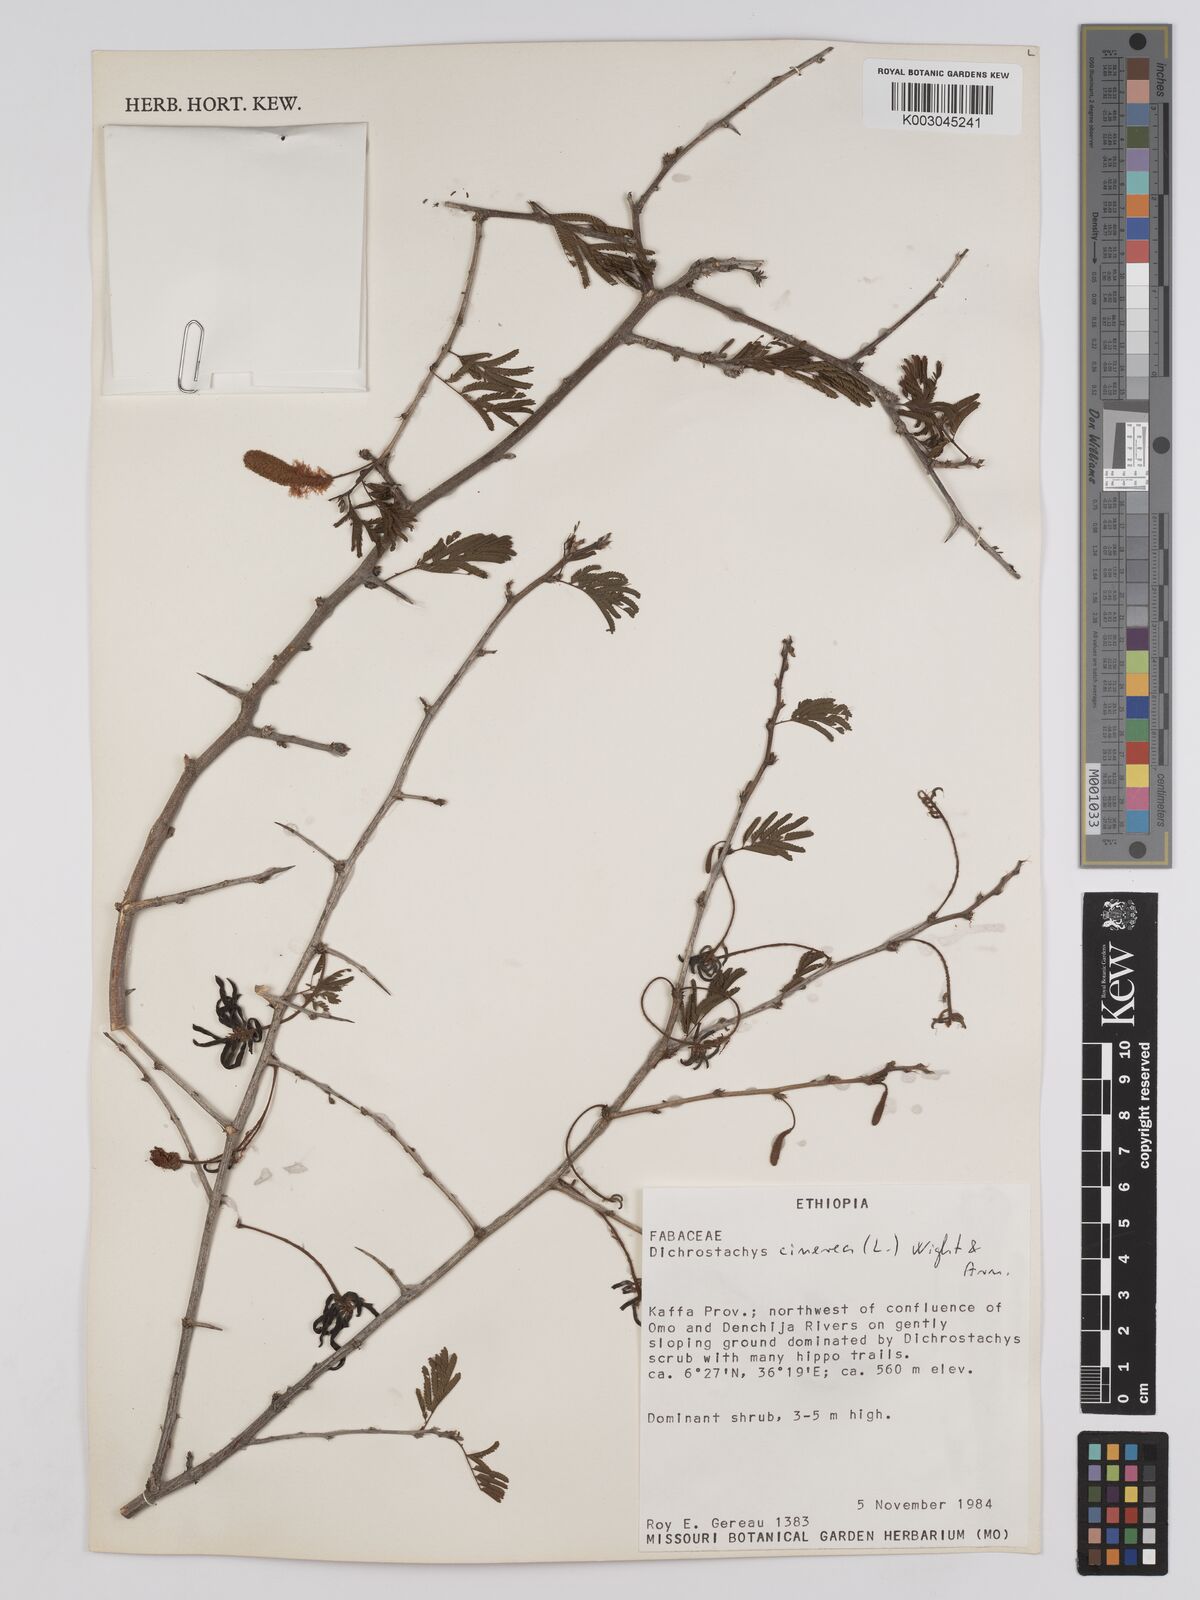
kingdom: Plantae
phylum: Tracheophyta
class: Magnoliopsida
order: Fabales
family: Fabaceae
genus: Dichrostachys
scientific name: Dichrostachys cinerea
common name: Sicklebush
